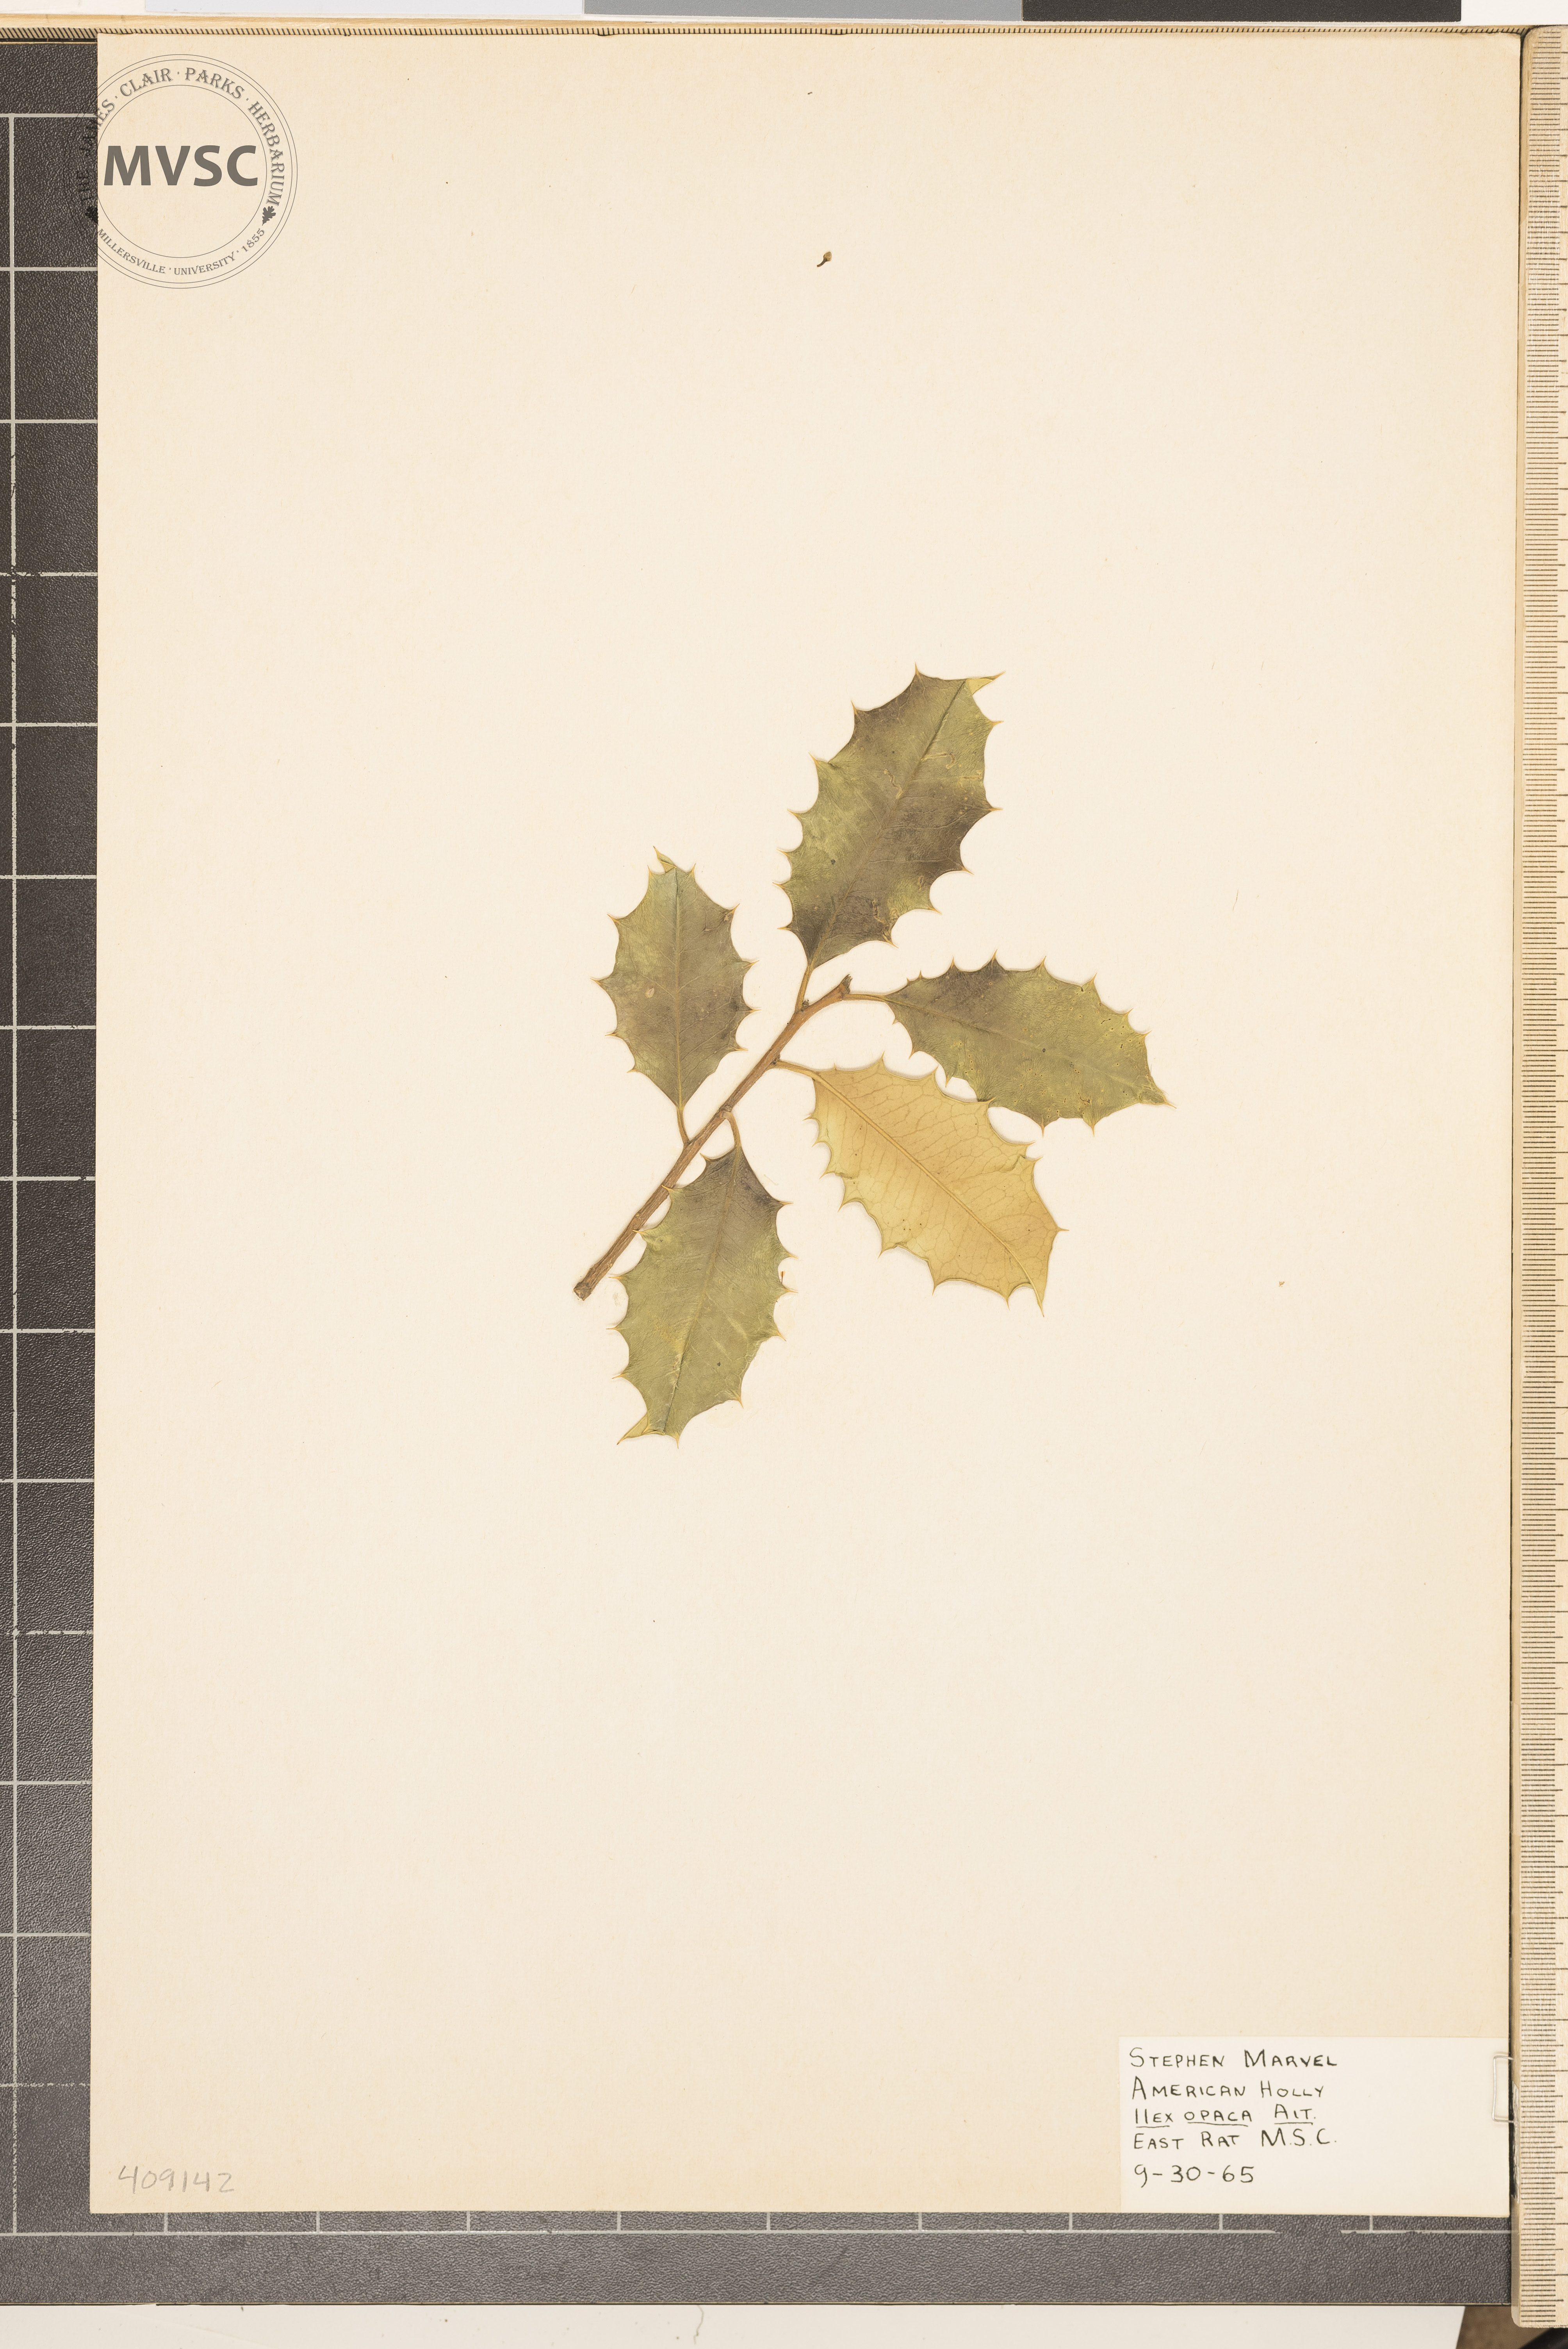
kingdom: Plantae
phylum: Tracheophyta
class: Magnoliopsida
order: Aquifoliales
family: Aquifoliaceae
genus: Ilex
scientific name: Ilex opaca
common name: American holly
